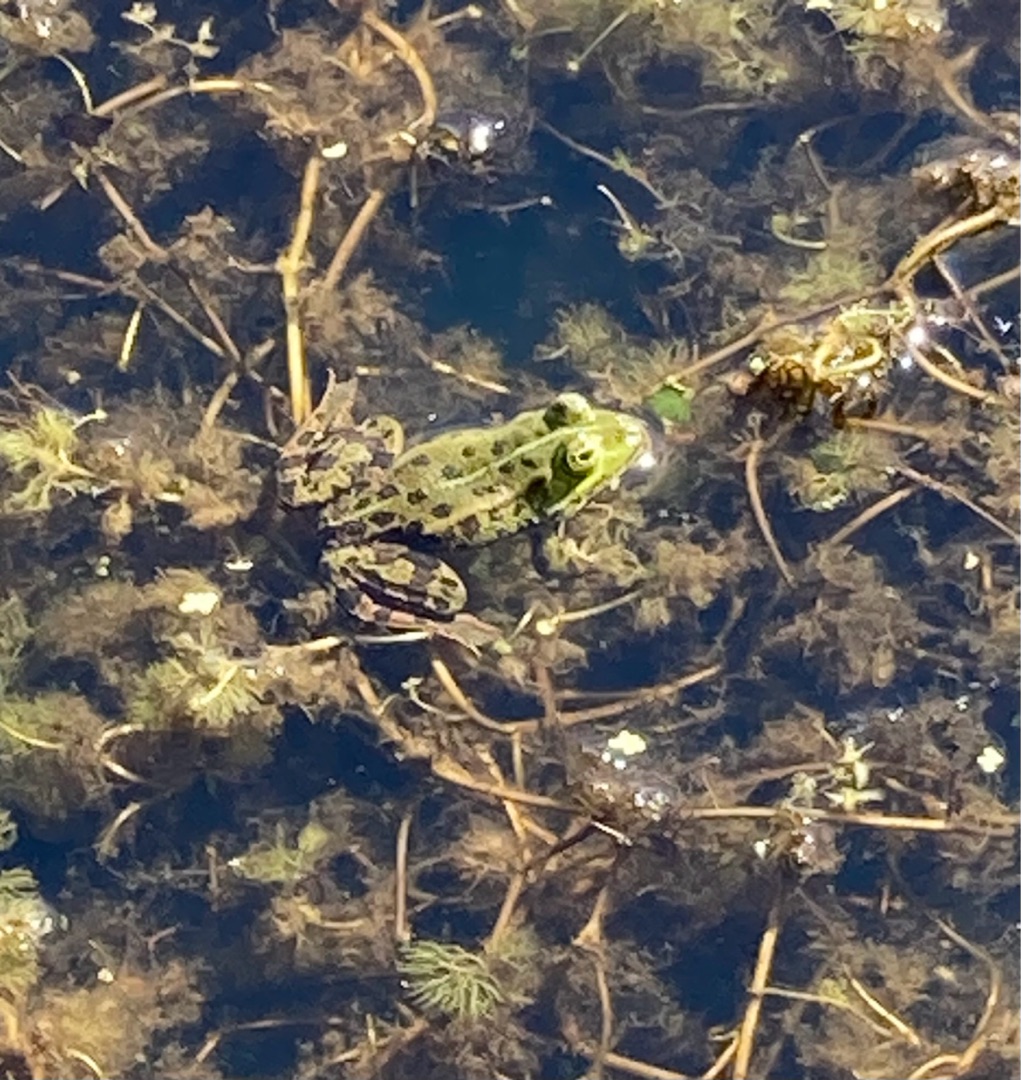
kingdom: Animalia
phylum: Chordata
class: Amphibia
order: Anura
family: Ranidae
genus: Pelophylax
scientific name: Pelophylax lessonae
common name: Grøn frø
